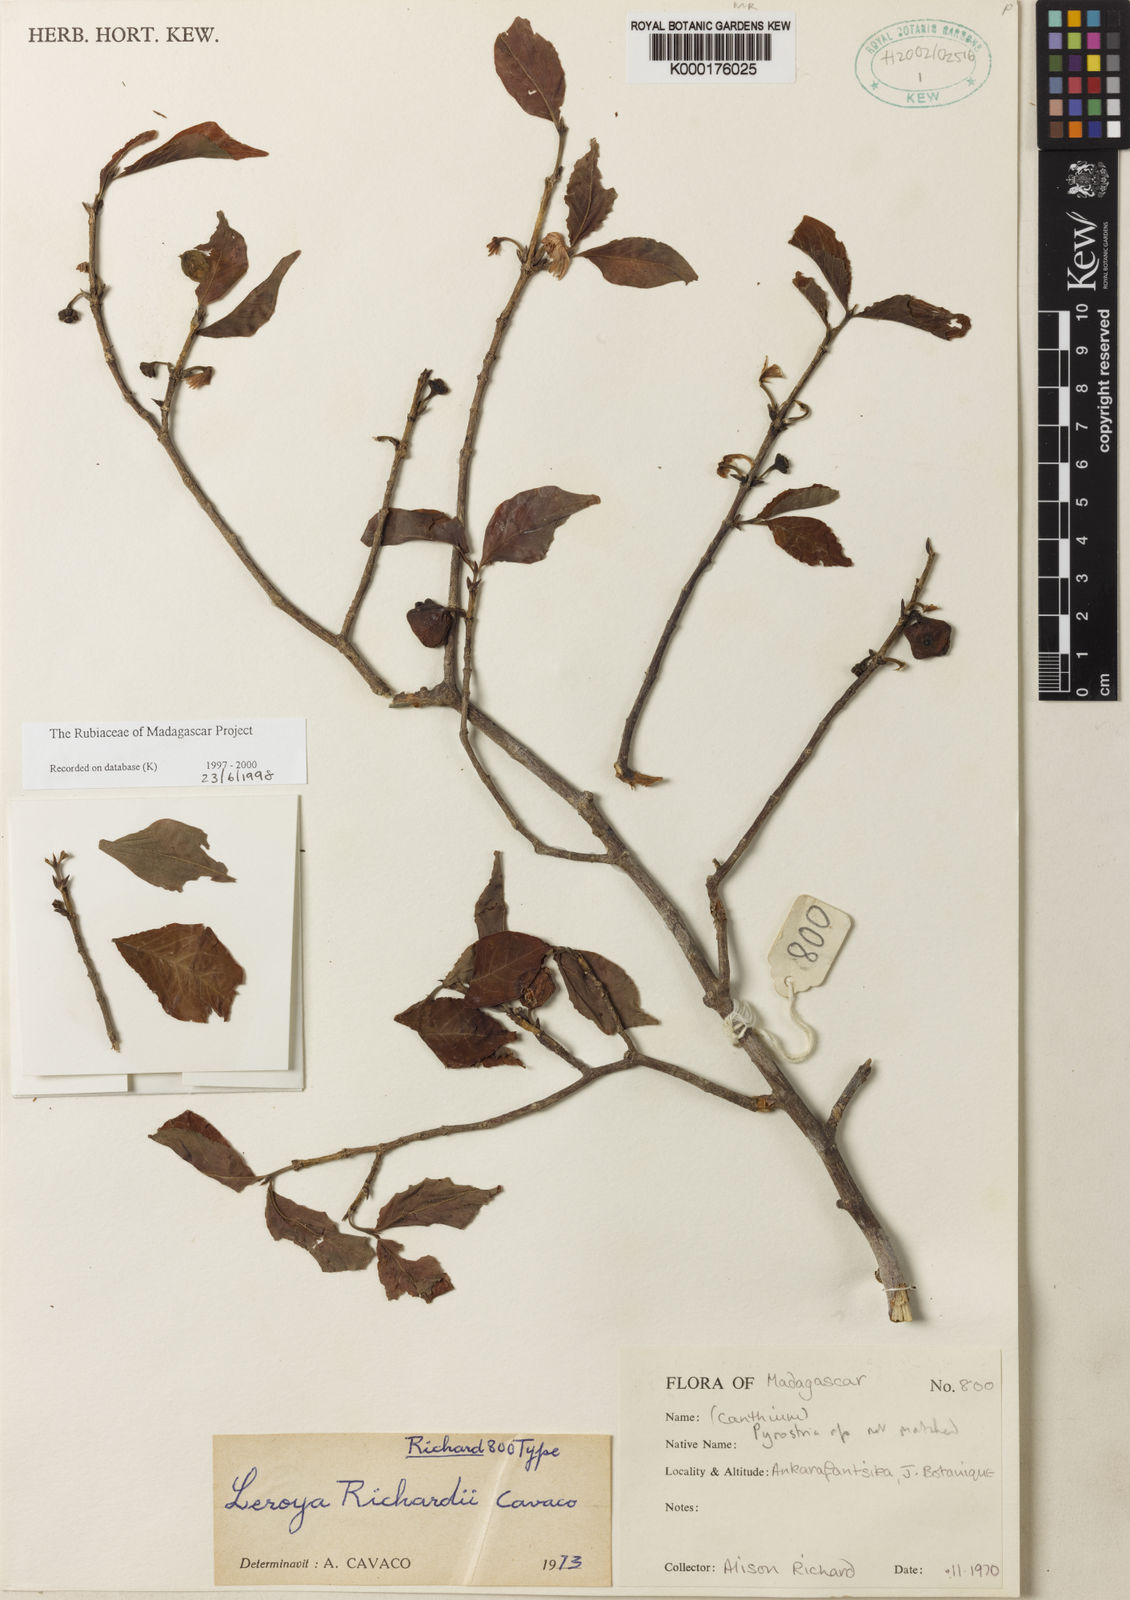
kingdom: Plantae
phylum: Tracheophyta
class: Magnoliopsida
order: Gentianales
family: Rubiaceae
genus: Pyrostria
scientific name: Pyrostria richardiae
